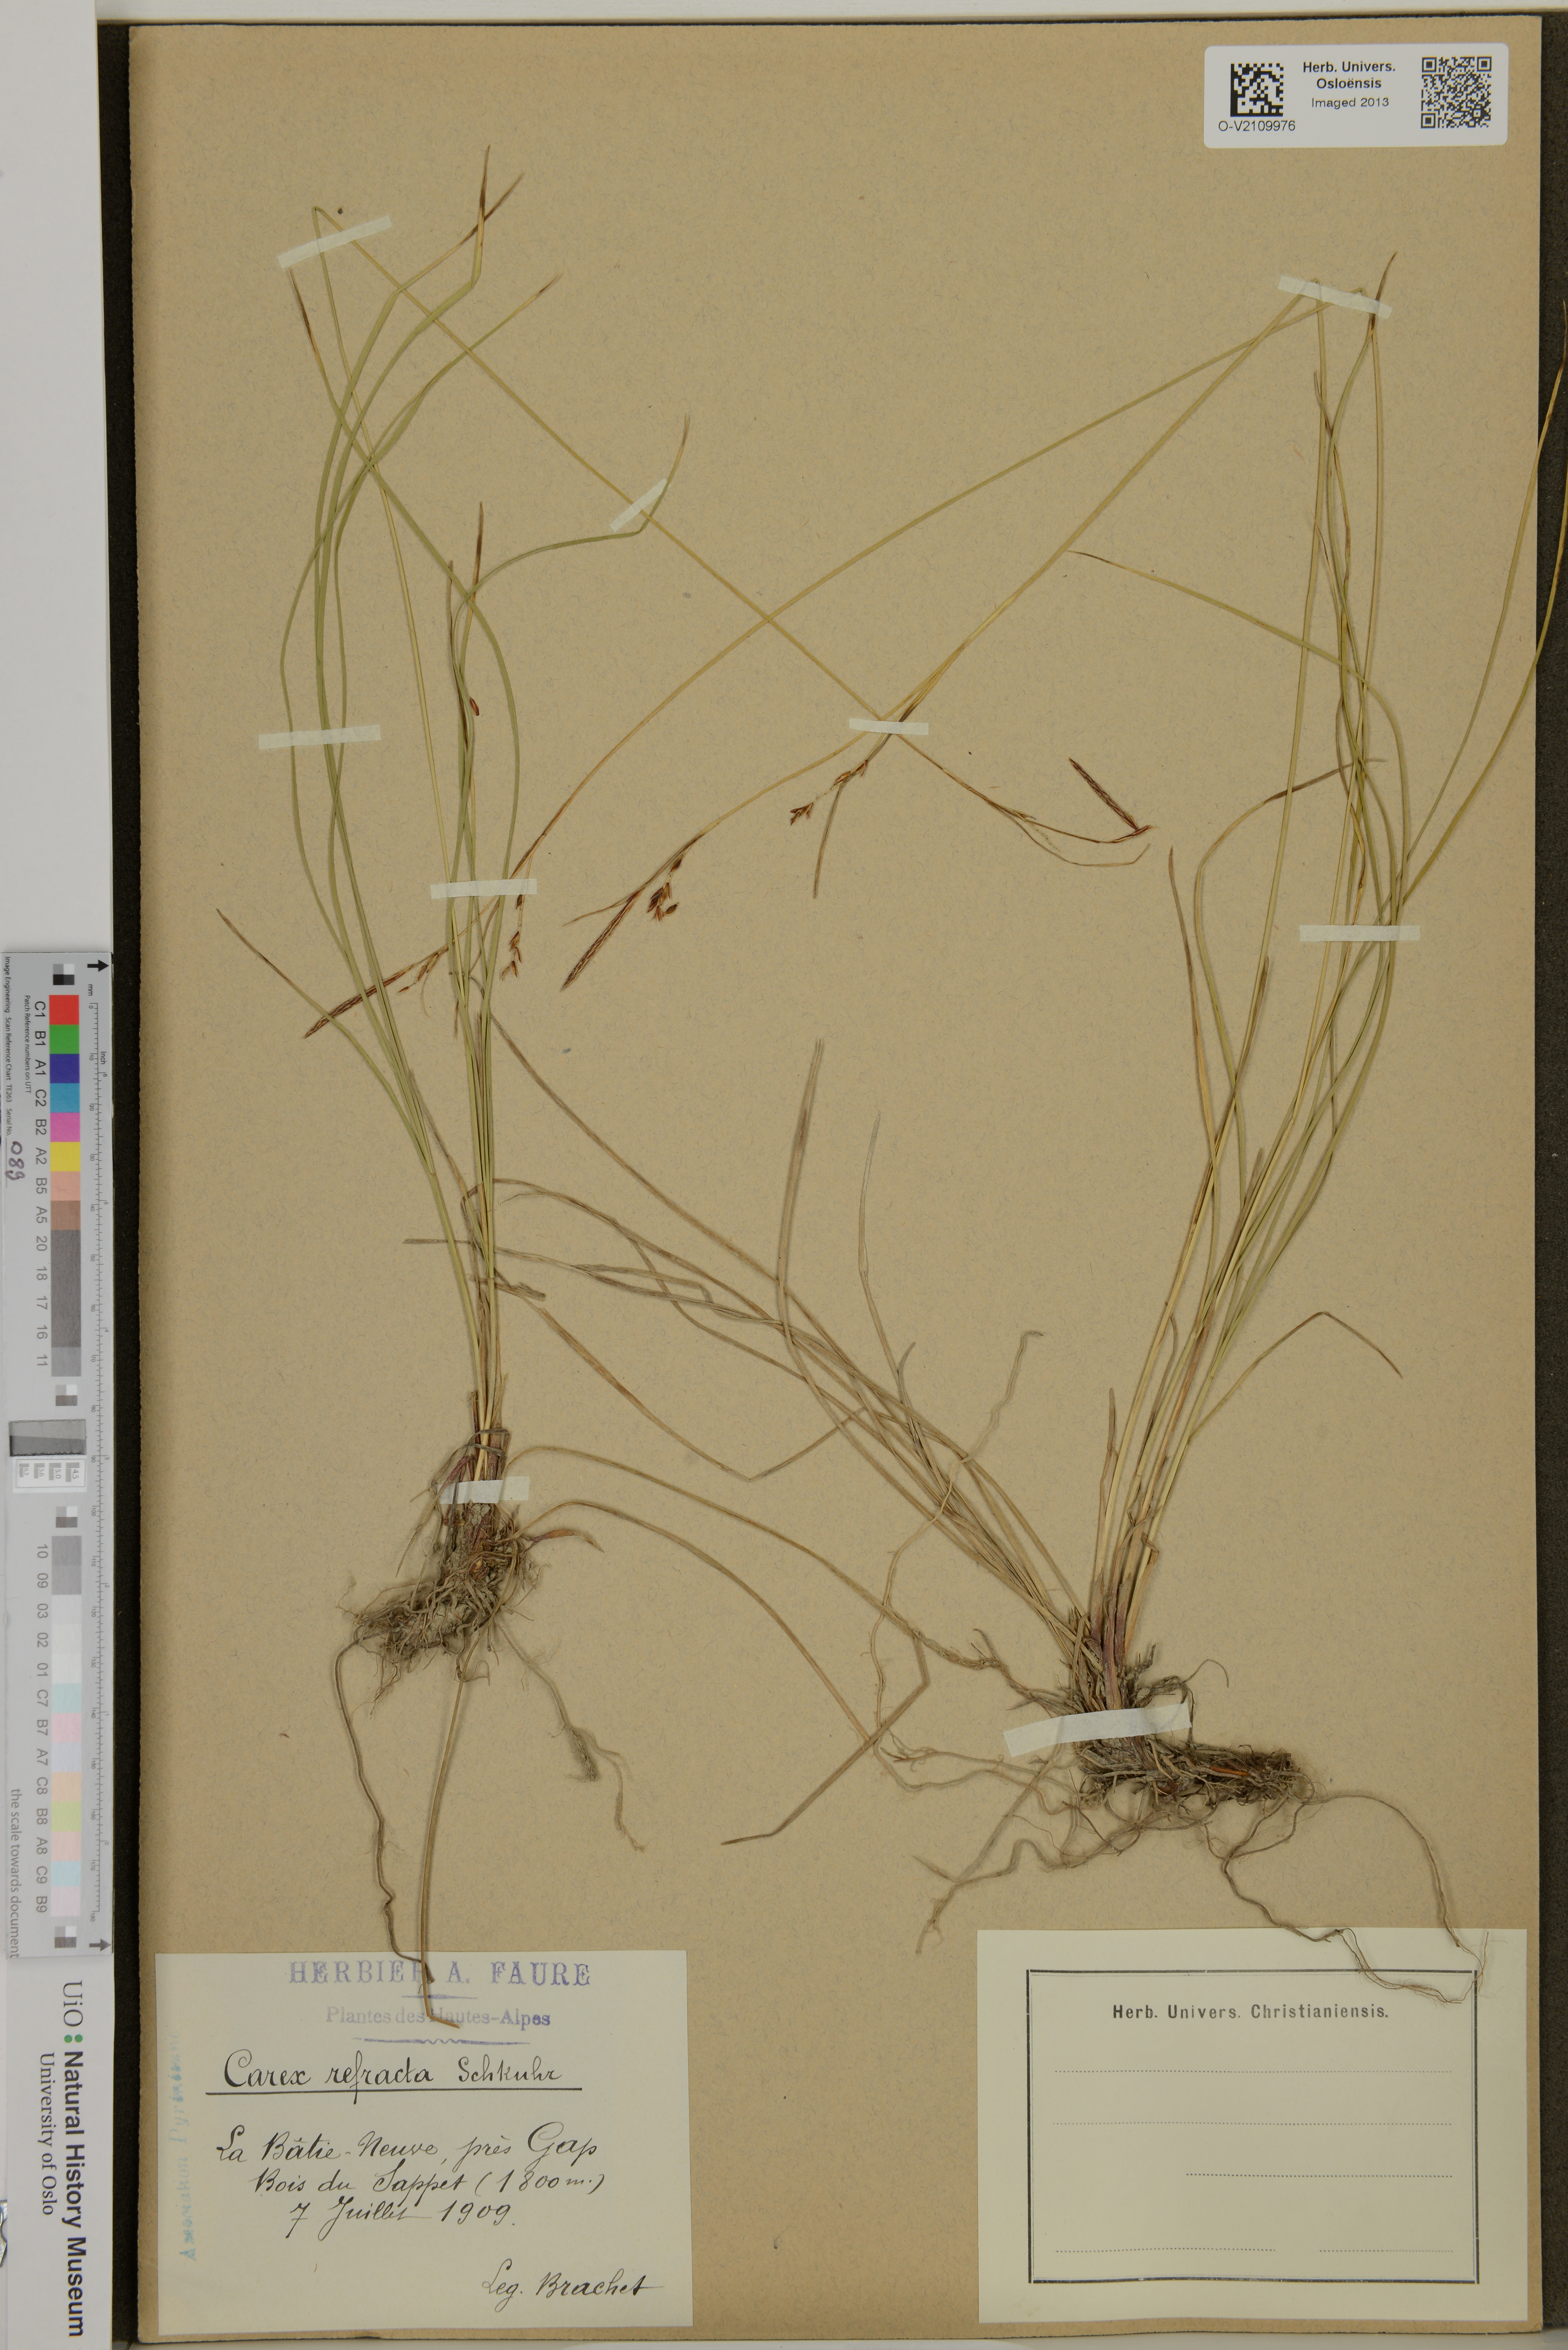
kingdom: Plantae
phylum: Tracheophyta
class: Liliopsida
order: Poales
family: Cyperaceae
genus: Carex
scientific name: Carex
